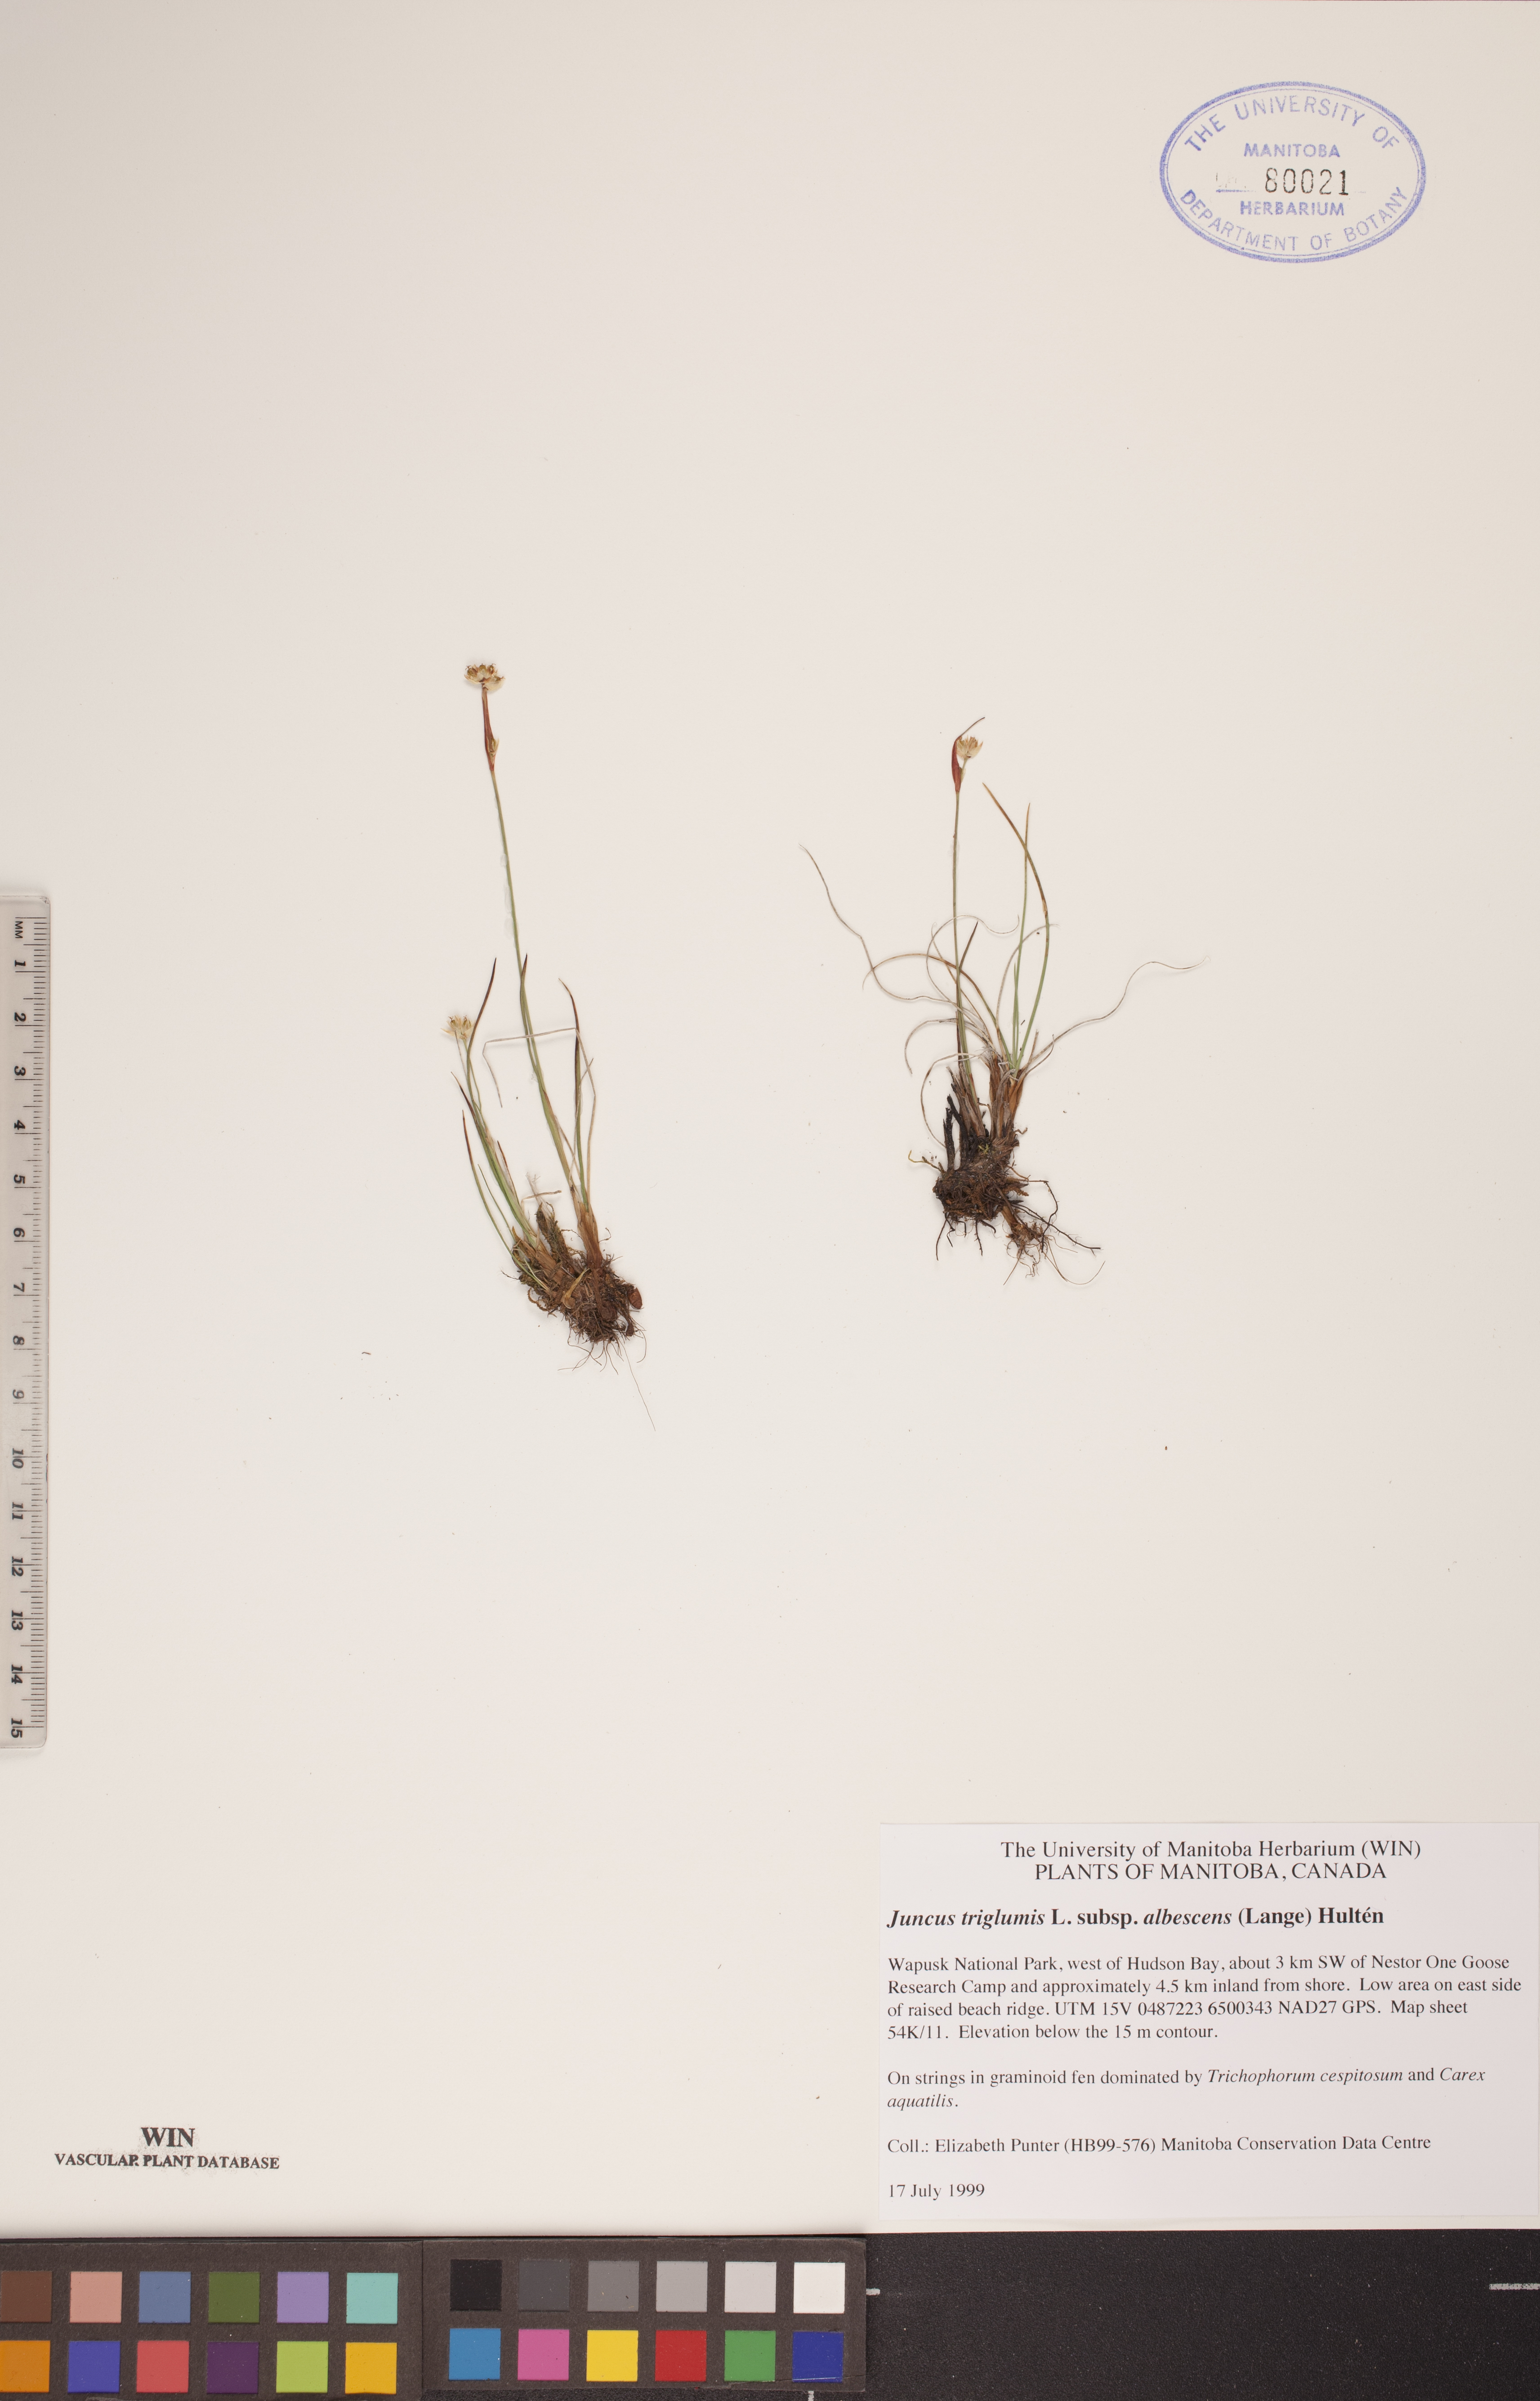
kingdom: Plantae
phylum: Tracheophyta
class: Liliopsida
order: Poales
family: Juncaceae
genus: Juncus
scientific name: Juncus albescens
